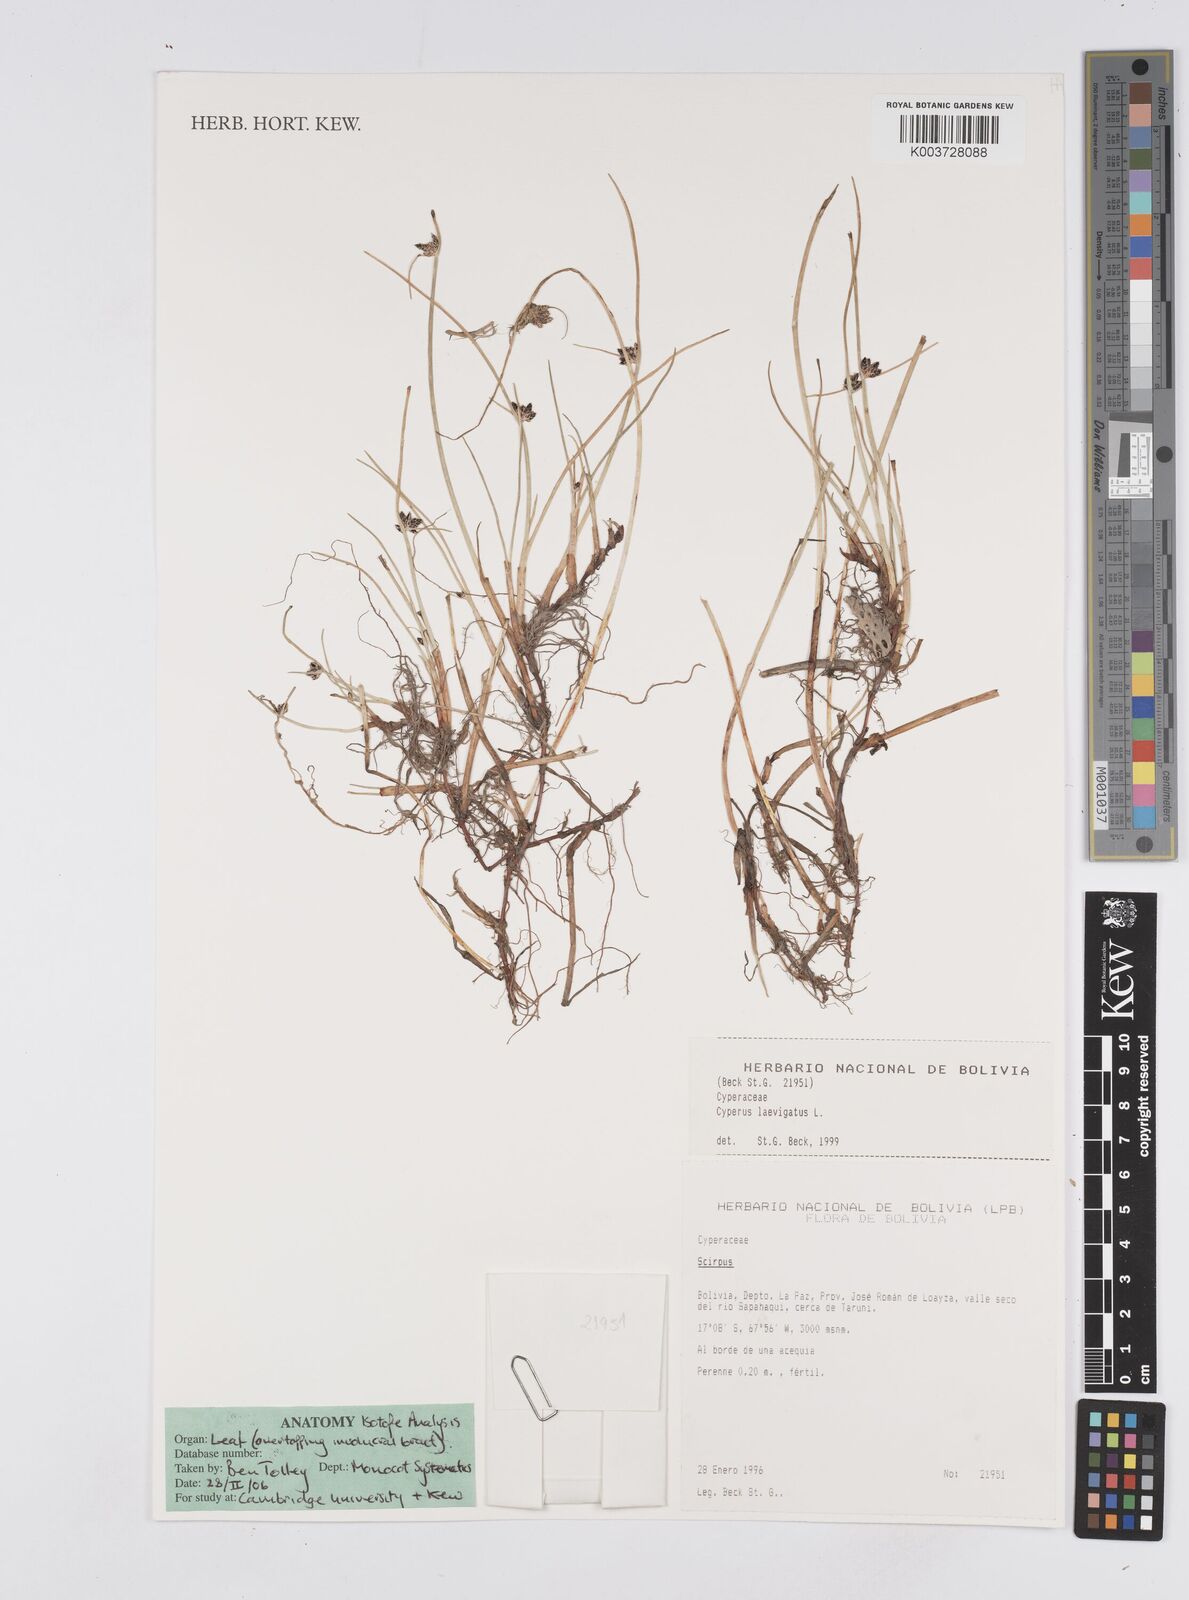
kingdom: Plantae
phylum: Tracheophyta
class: Liliopsida
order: Poales
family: Cyperaceae
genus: Cyperus
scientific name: Cyperus laevigatus
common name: Smooth flat sedge
